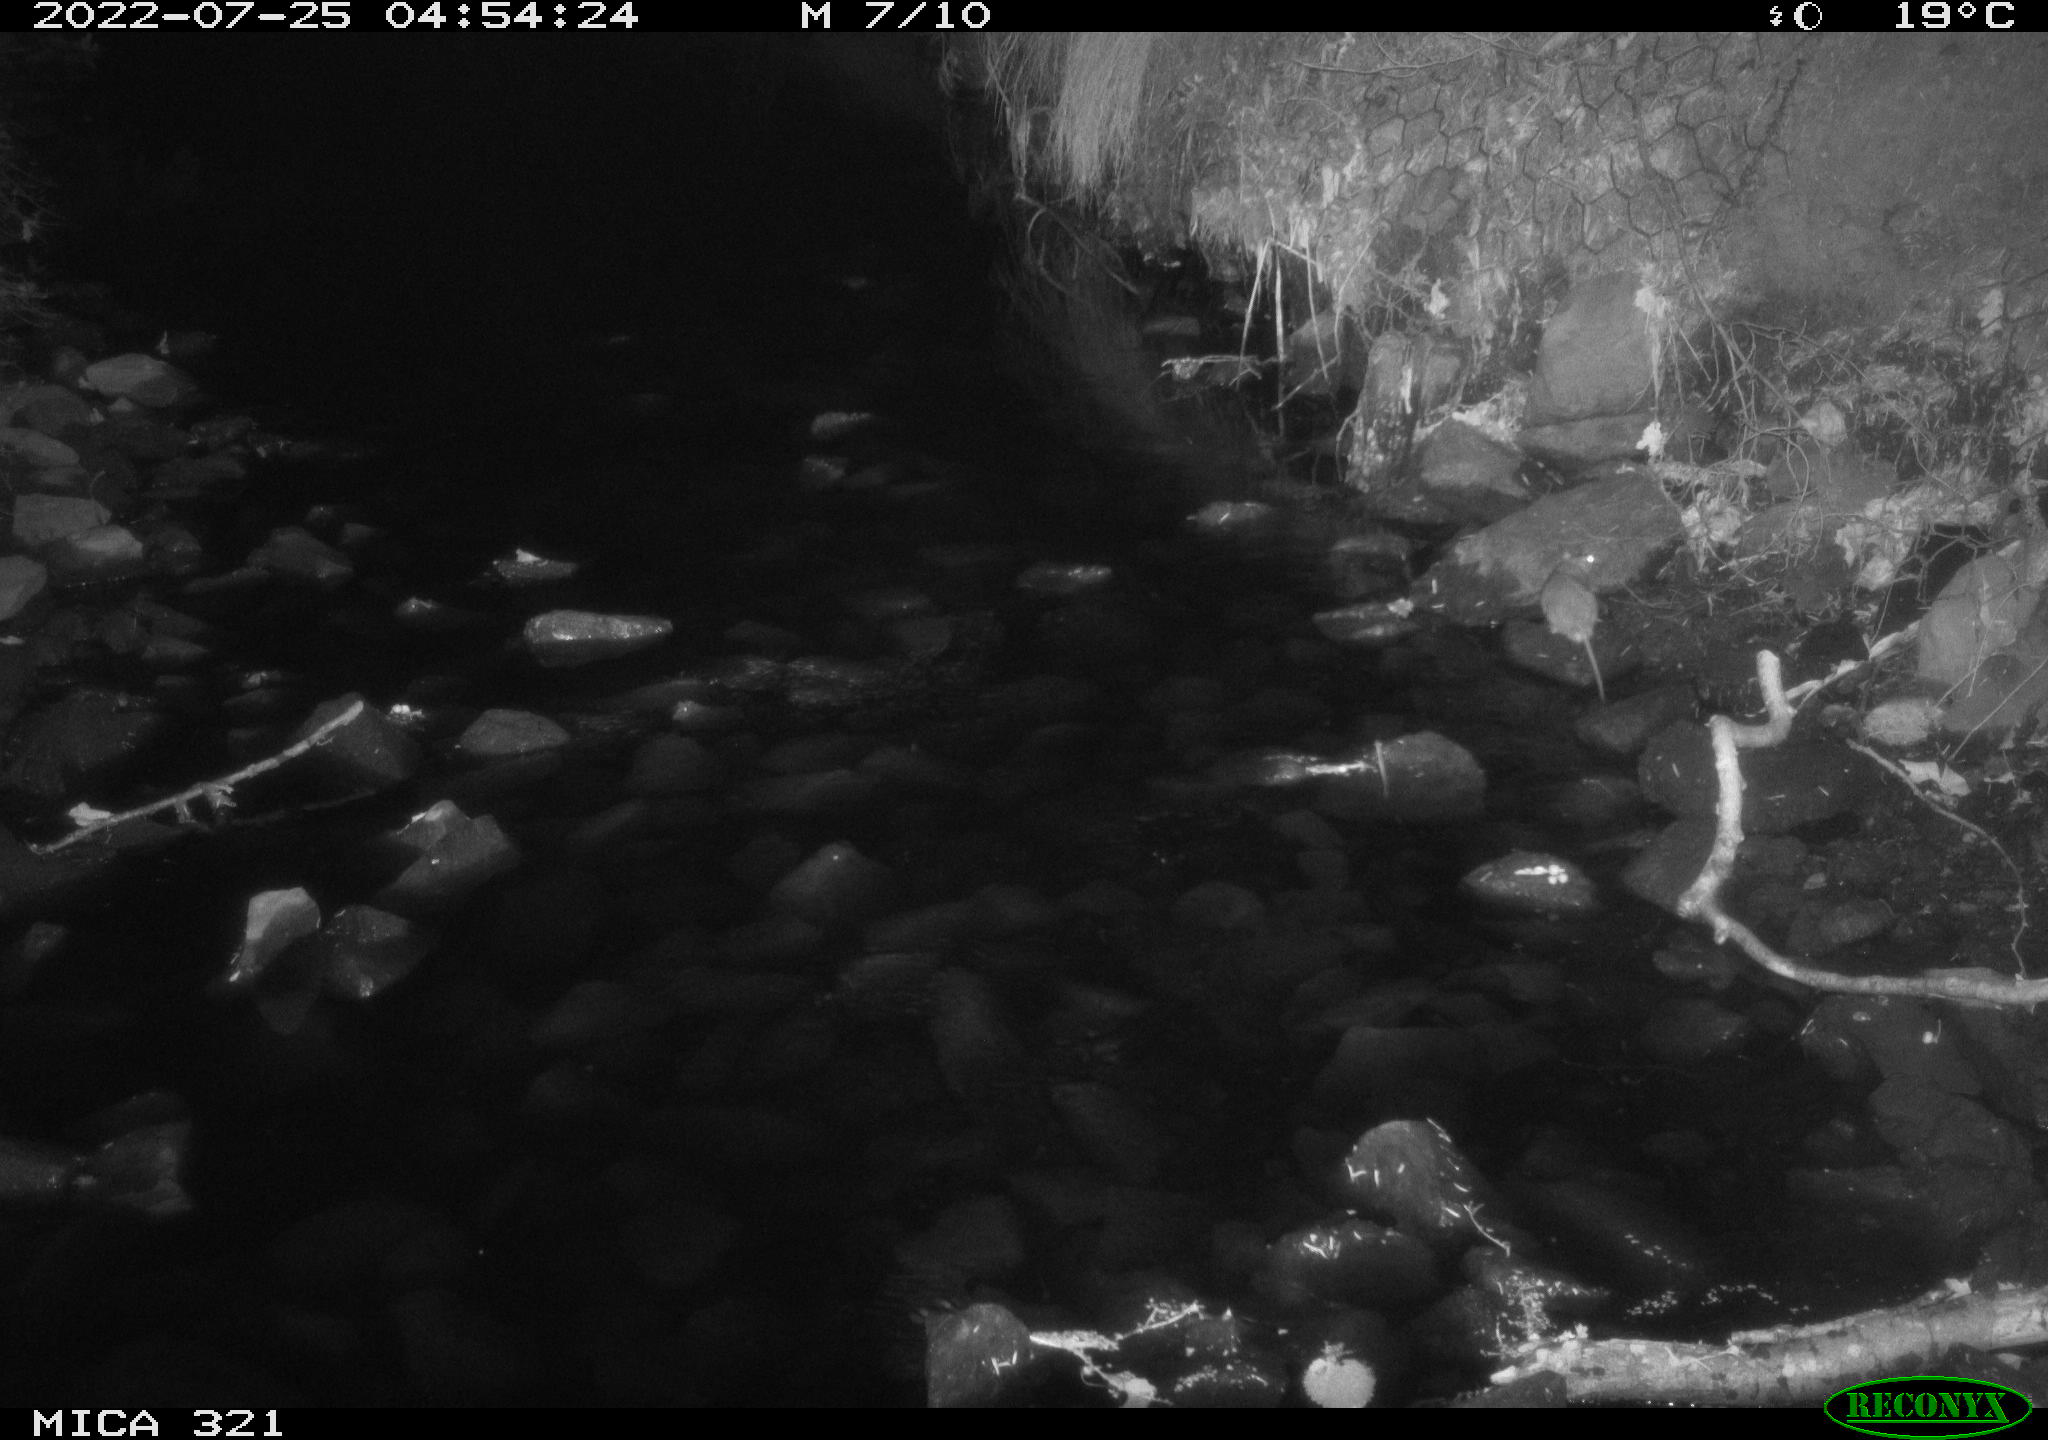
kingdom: Animalia
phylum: Chordata
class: Mammalia
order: Rodentia
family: Muridae
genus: Rattus
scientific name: Rattus norvegicus
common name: Brown rat
